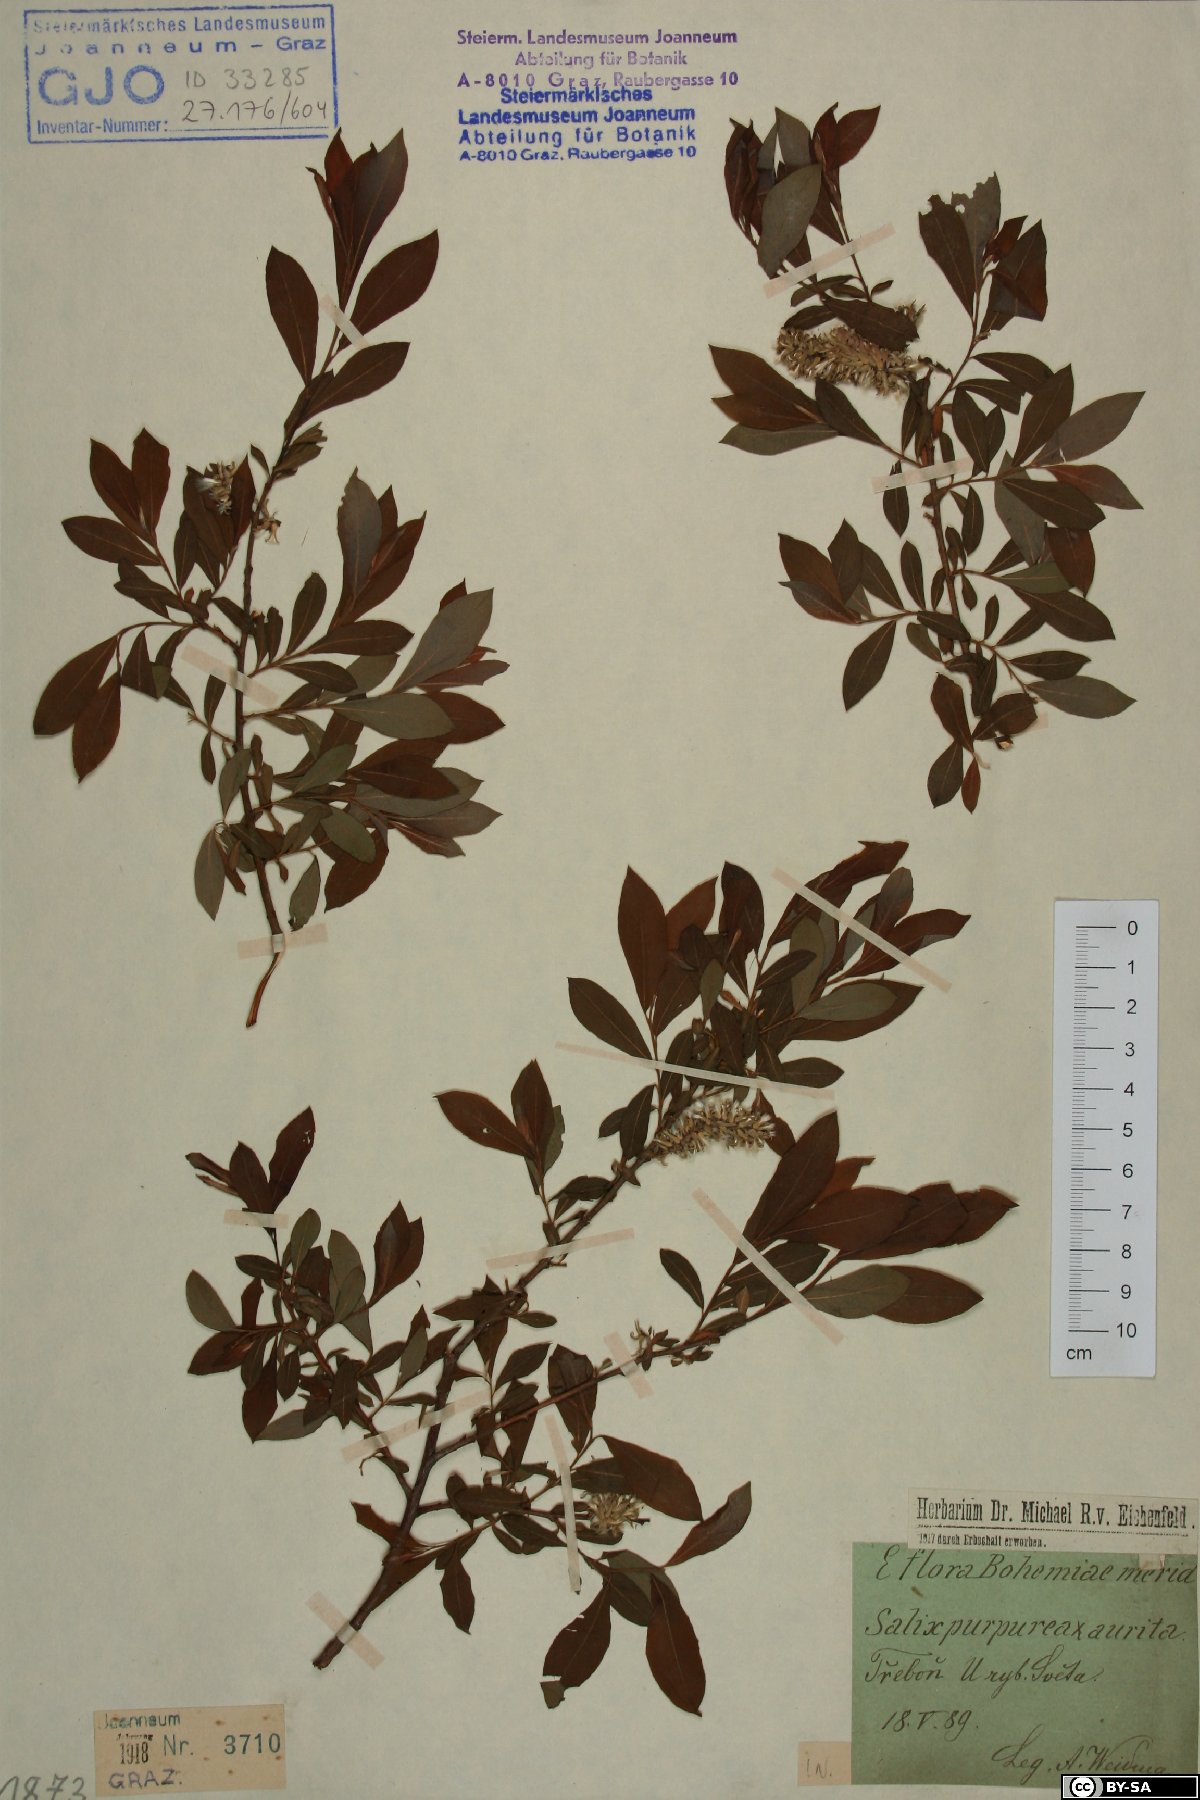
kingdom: Plantae
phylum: Tracheophyta
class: Magnoliopsida
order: Malpighiales
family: Salicaceae
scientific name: Salicaceae
